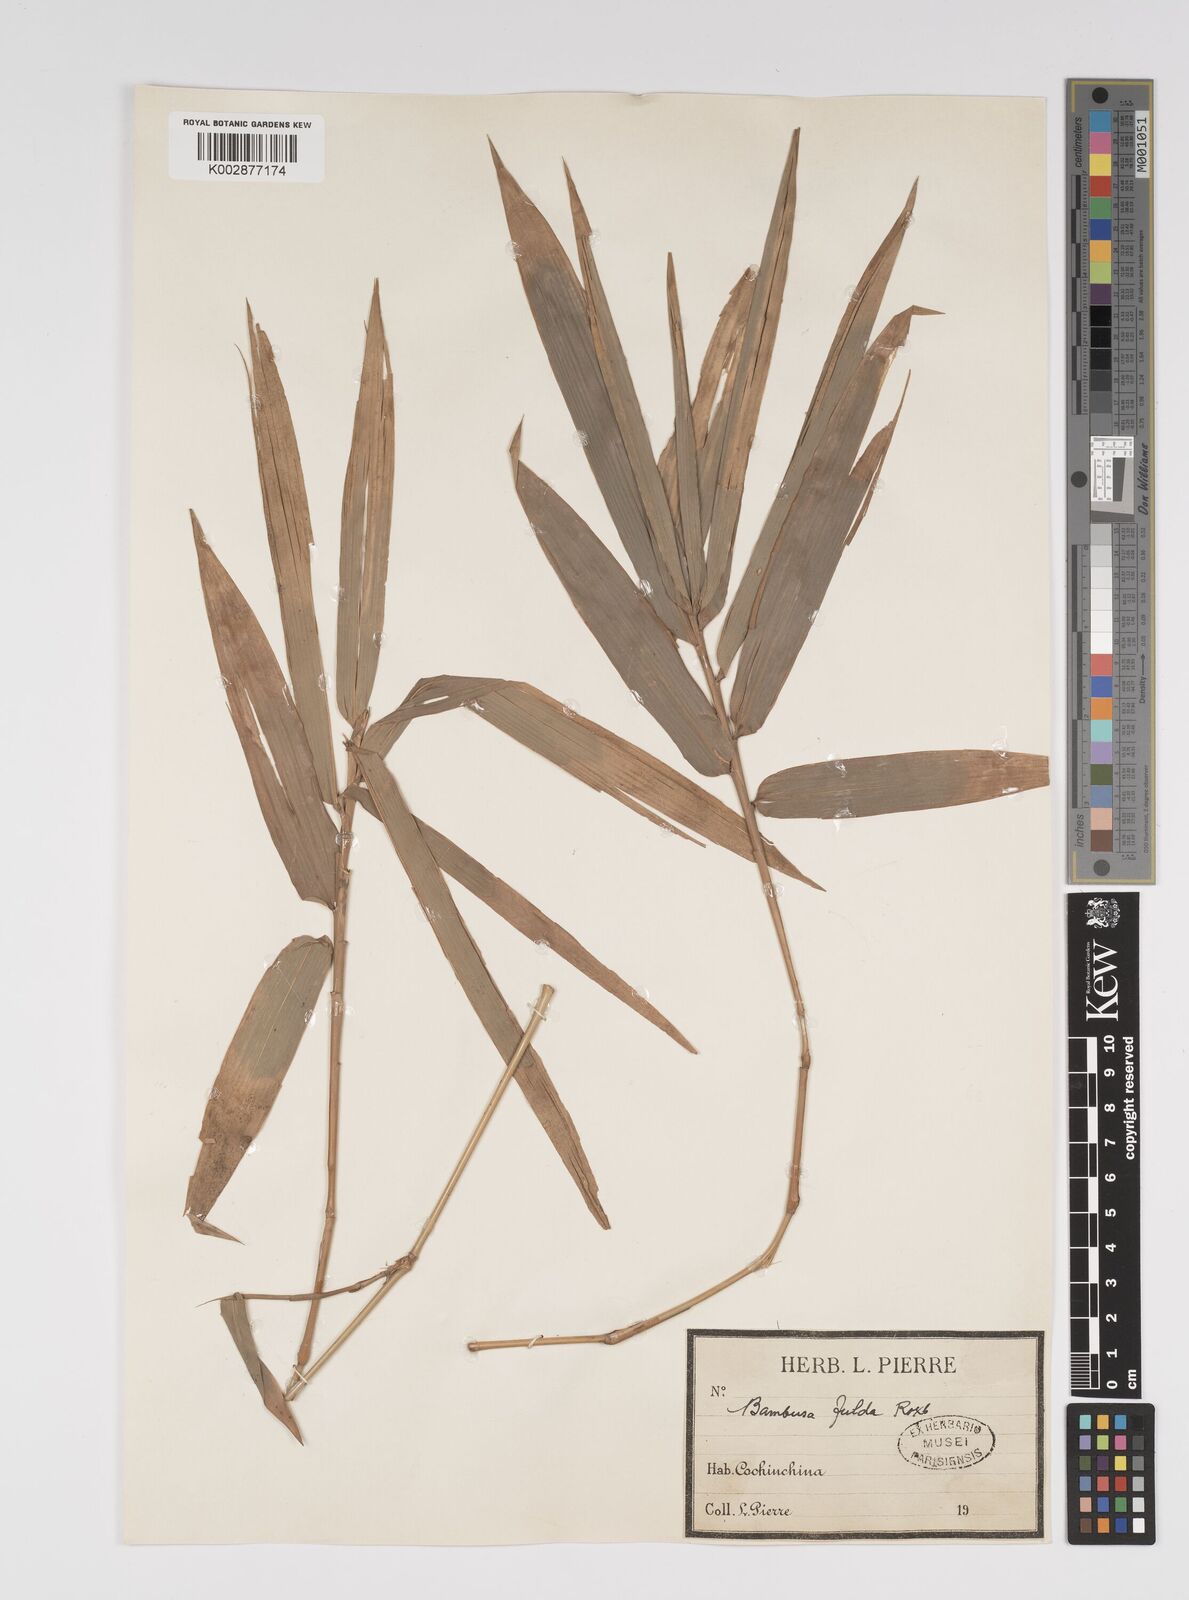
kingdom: Plantae
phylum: Tracheophyta
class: Liliopsida
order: Poales
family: Poaceae
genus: Bambusa
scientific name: Bambusa tulda
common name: Bengal bamboo
